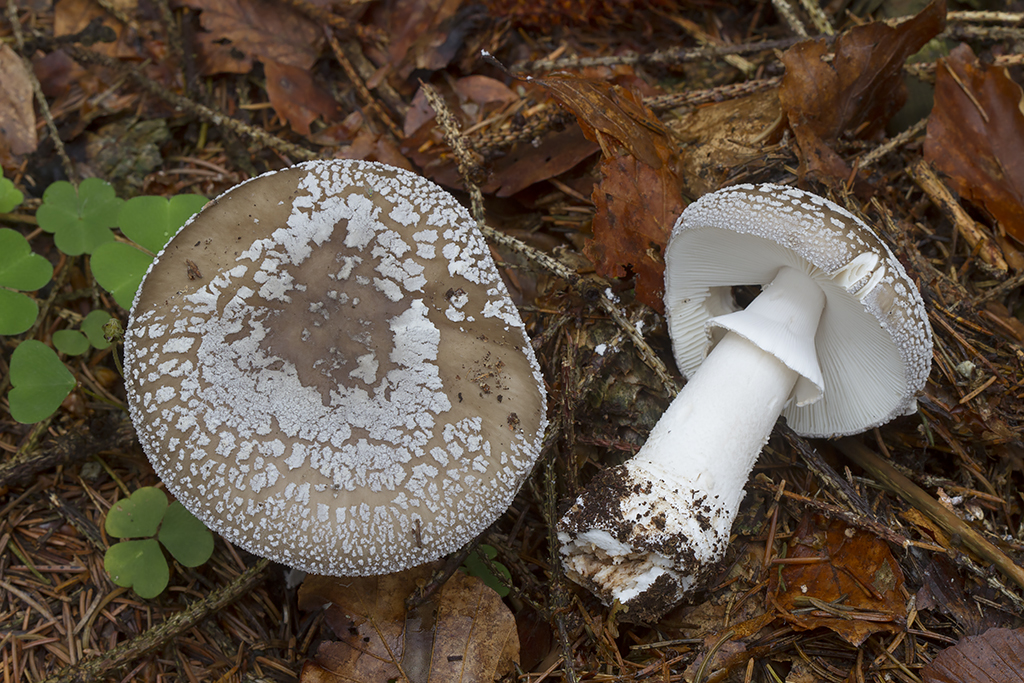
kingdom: Fungi
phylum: Basidiomycota
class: Agaricomycetes
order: Agaricales
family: Amanitaceae
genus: Amanita
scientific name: Amanita
